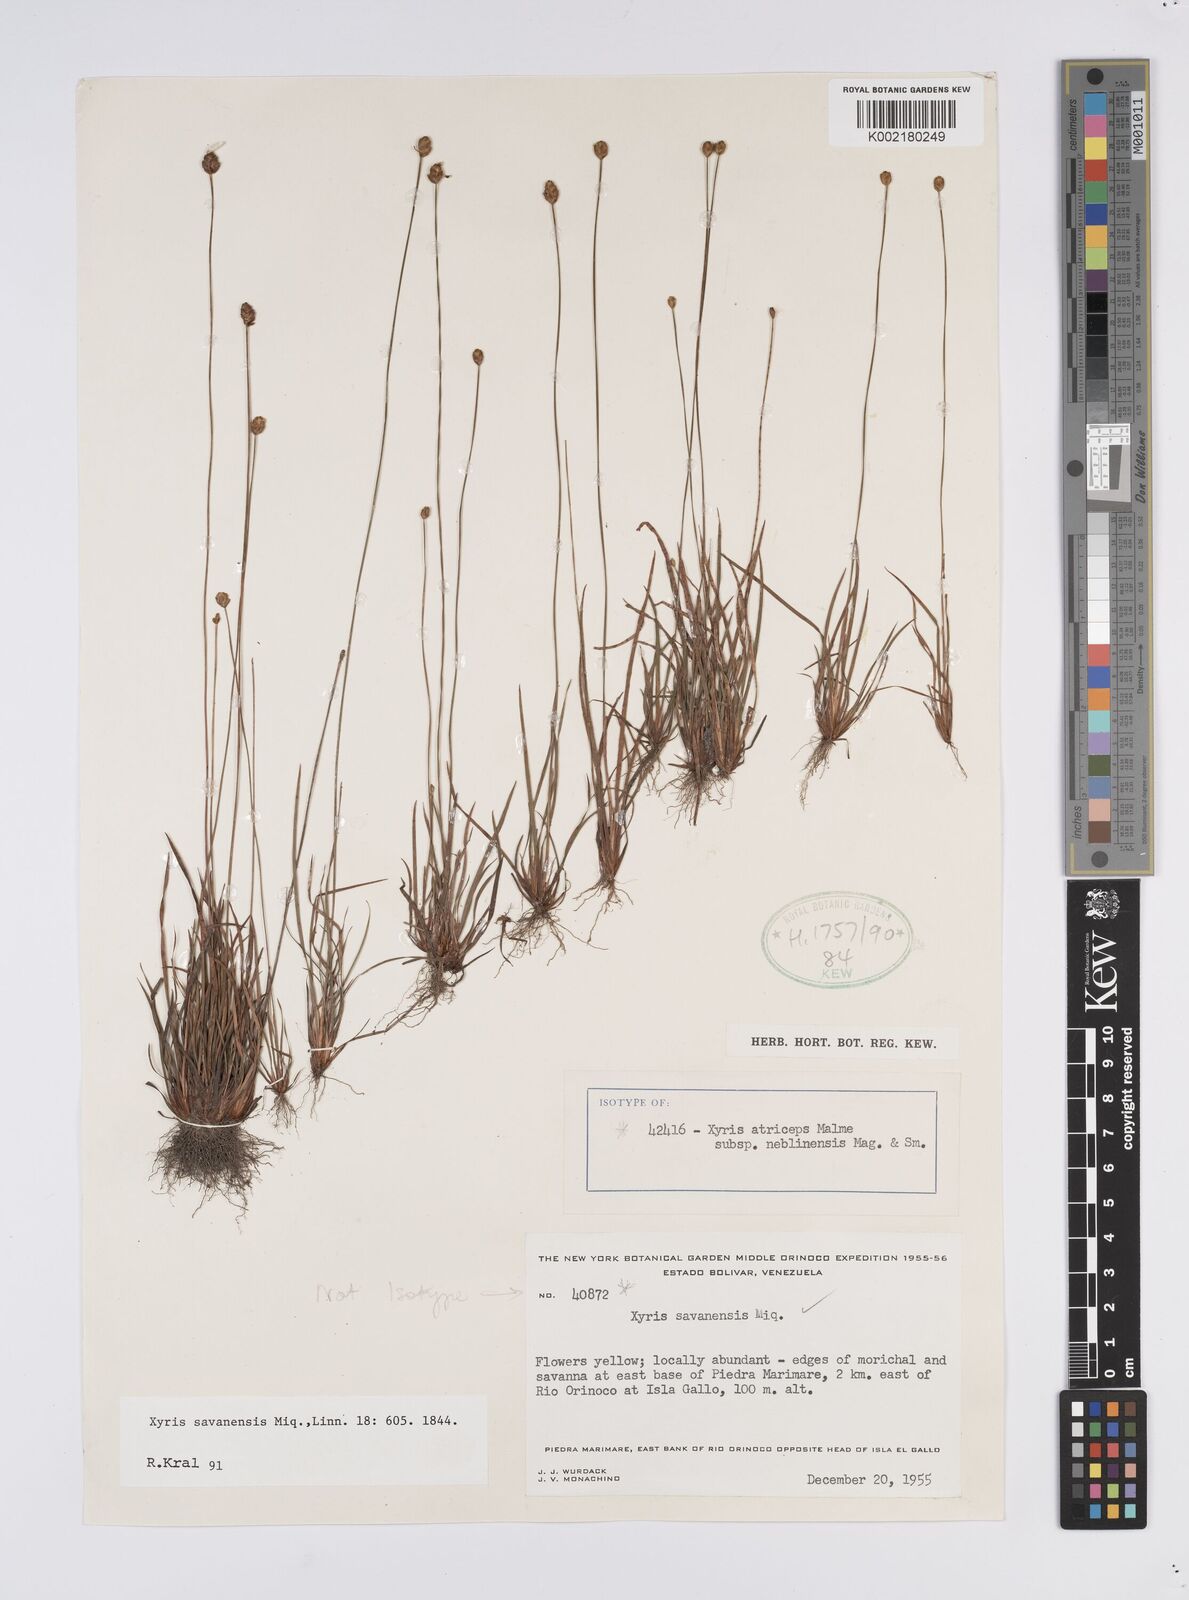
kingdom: Plantae
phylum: Tracheophyta
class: Liliopsida
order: Poales
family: Xyridaceae
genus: Xyris
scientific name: Xyris savanensis
